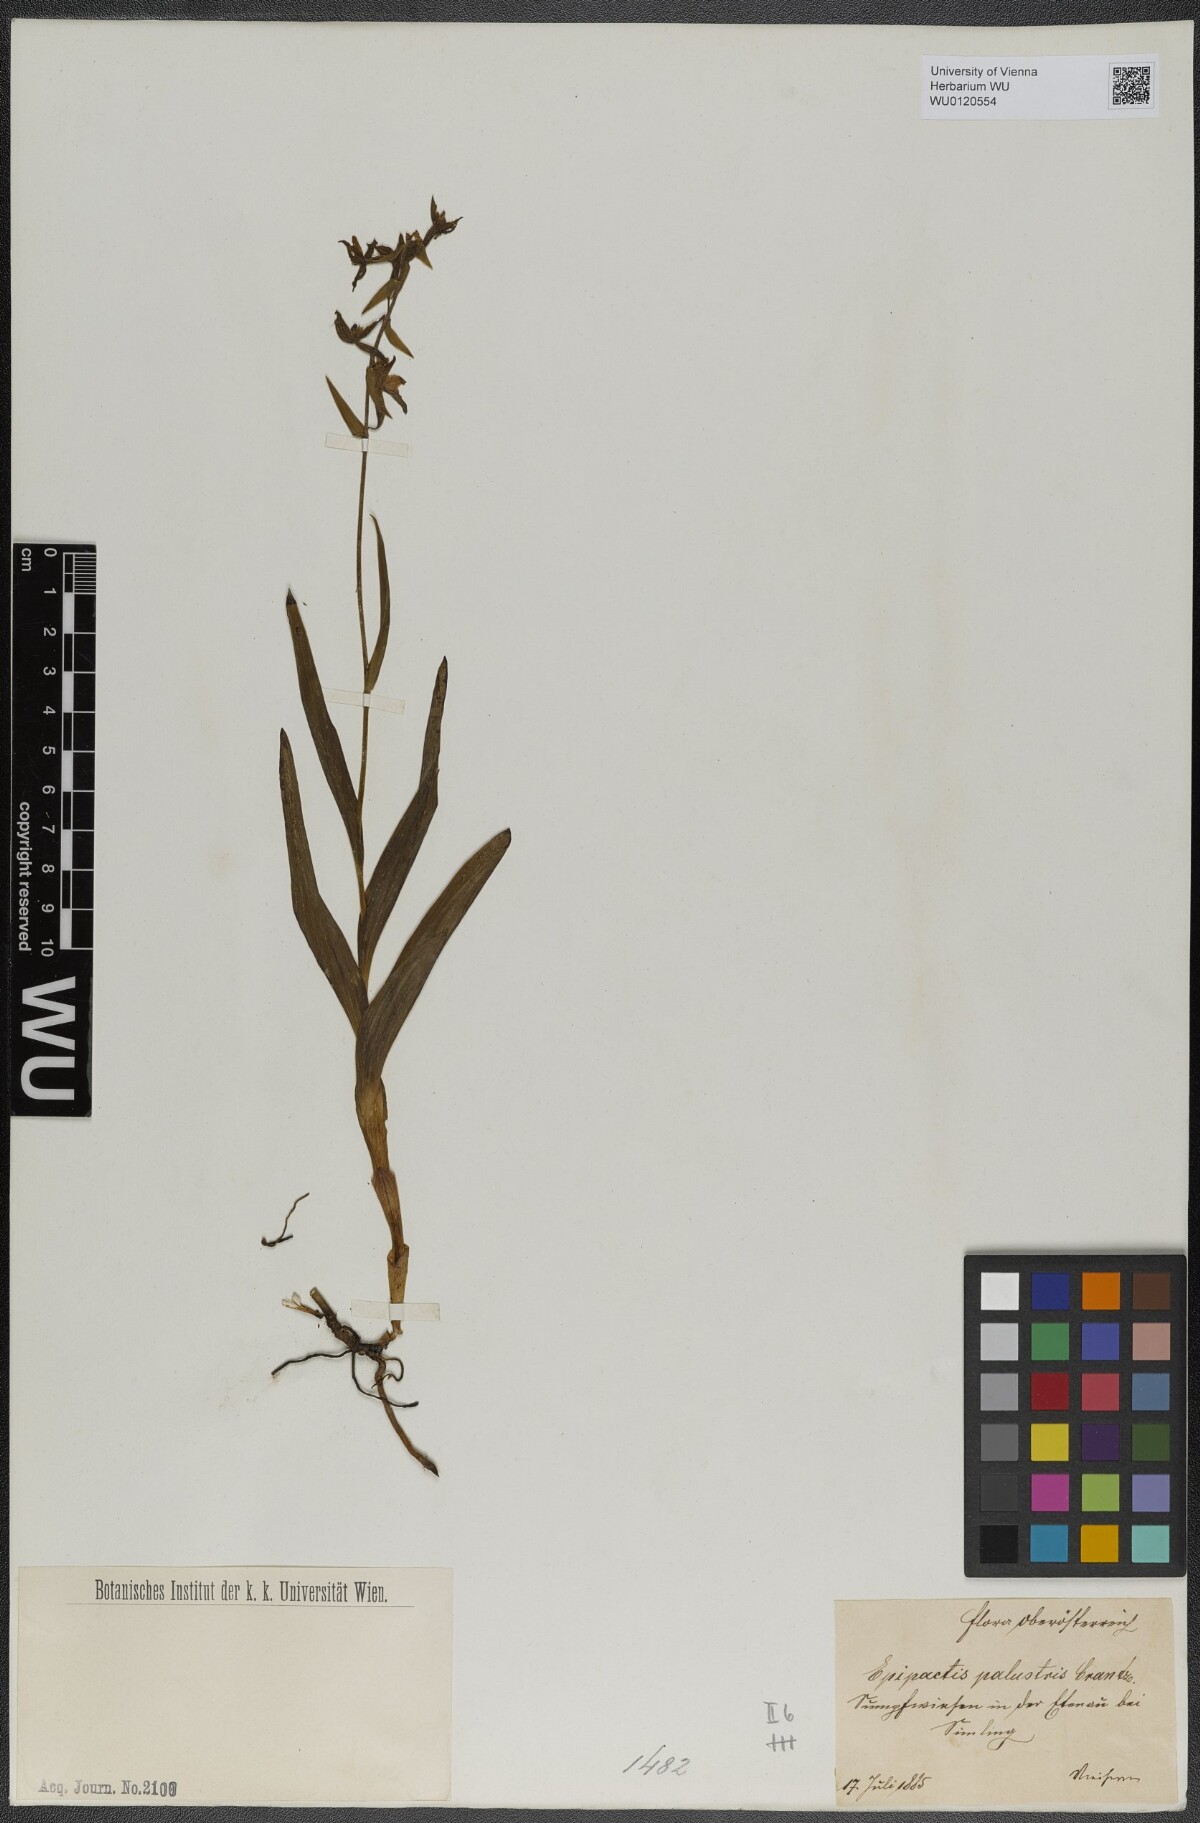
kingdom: Plantae
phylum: Tracheophyta
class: Liliopsida
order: Asparagales
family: Orchidaceae
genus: Epipactis
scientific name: Epipactis palustris
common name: Marsh helleborine
